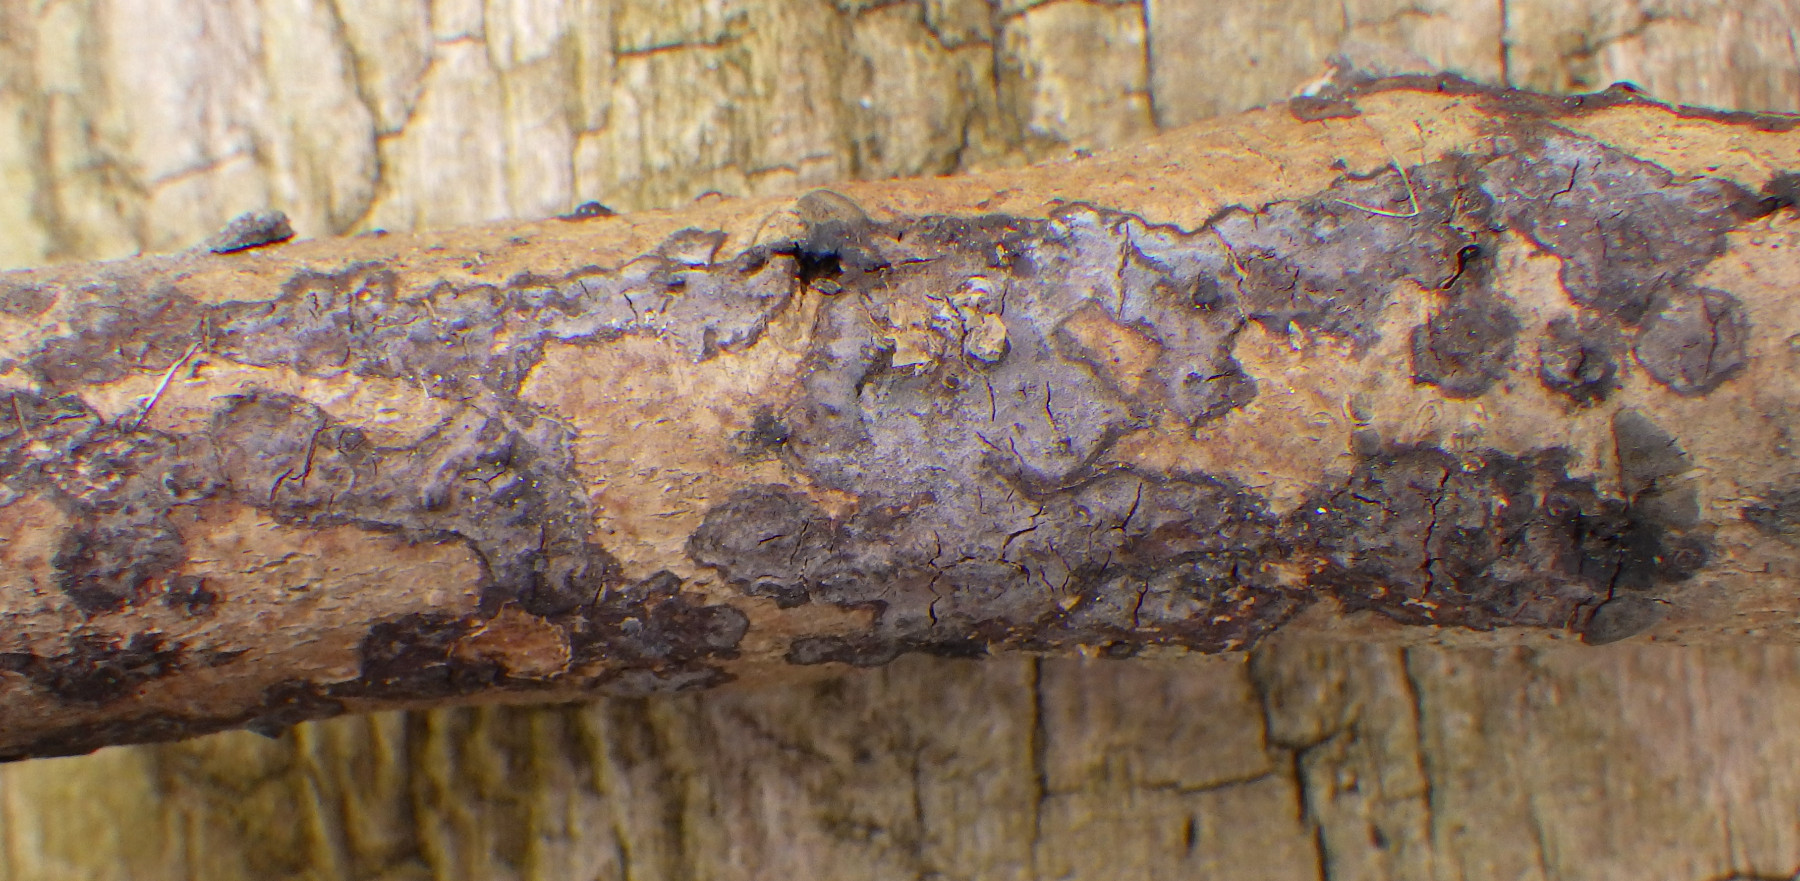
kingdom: Fungi
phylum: Basidiomycota
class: Agaricomycetes
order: Russulales
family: Peniophoraceae
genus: Peniophora
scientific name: Peniophora limitata
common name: mørkrandet voksskind
